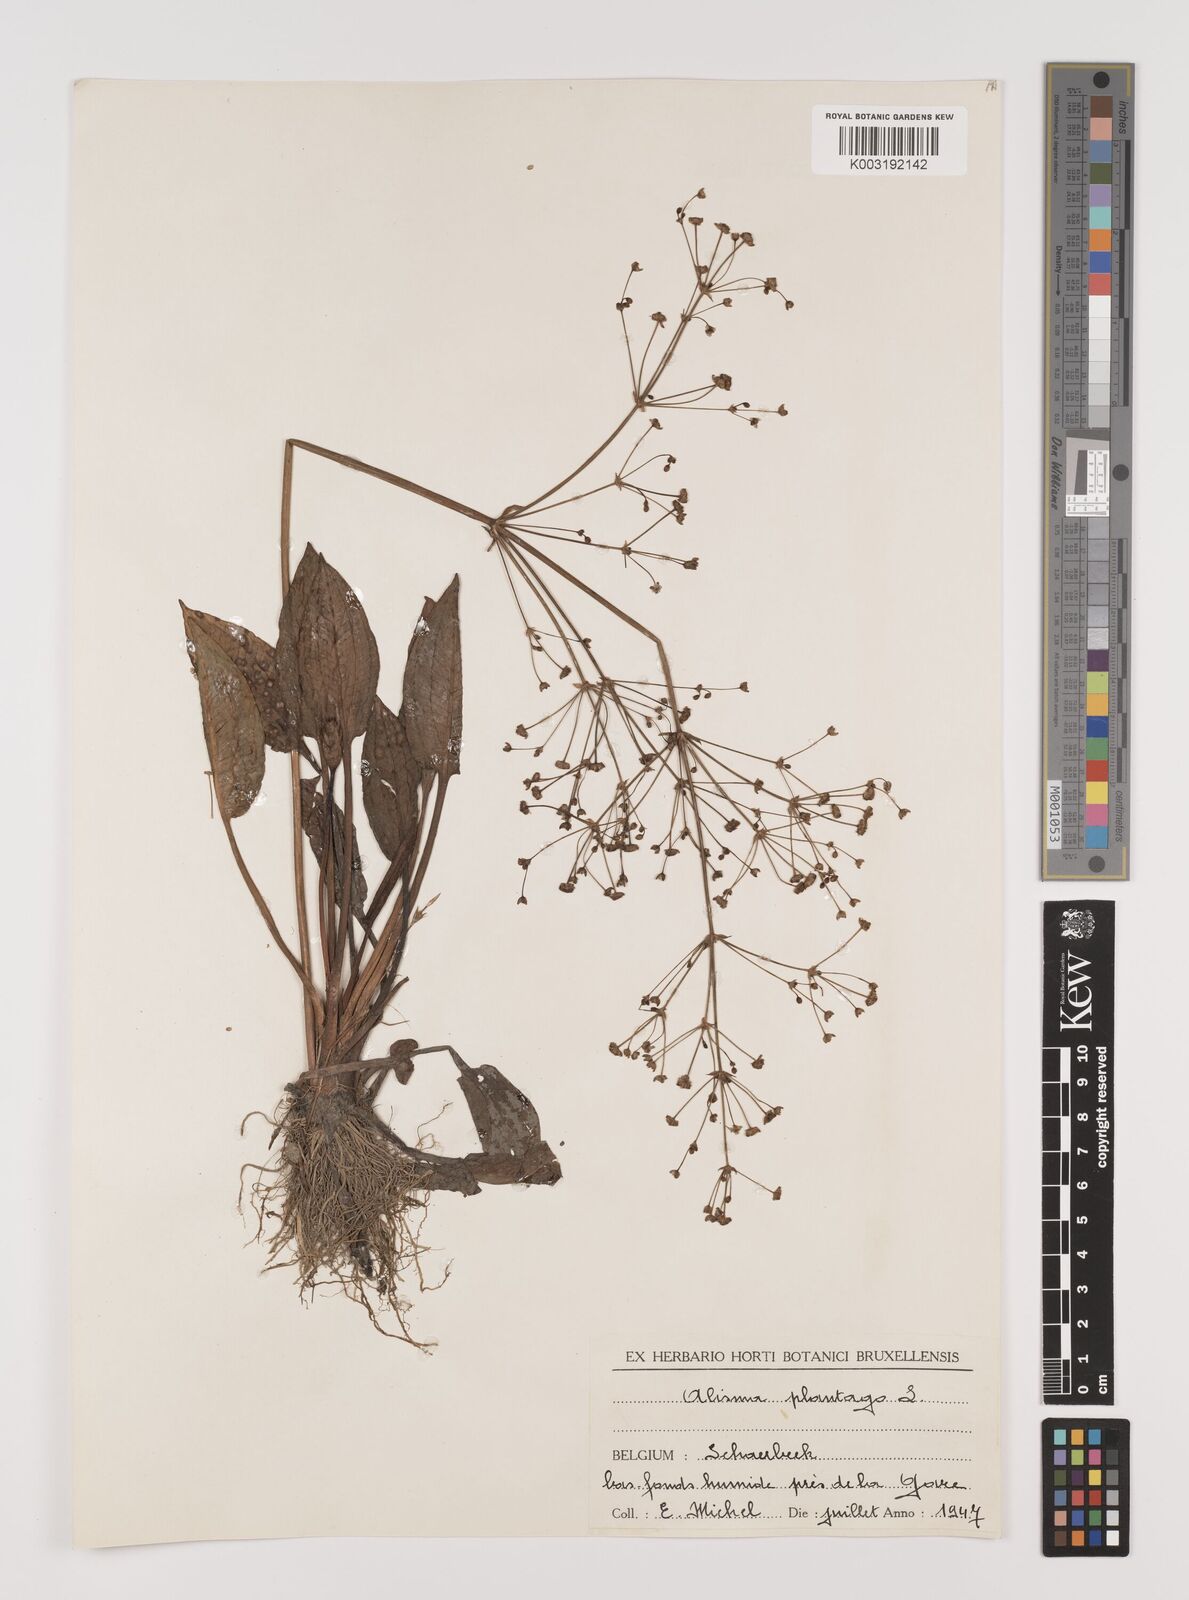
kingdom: Plantae
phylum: Tracheophyta
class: Liliopsida
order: Alismatales
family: Alismataceae
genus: Alisma
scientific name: Alisma plantago-aquatica
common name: Water-plantain
